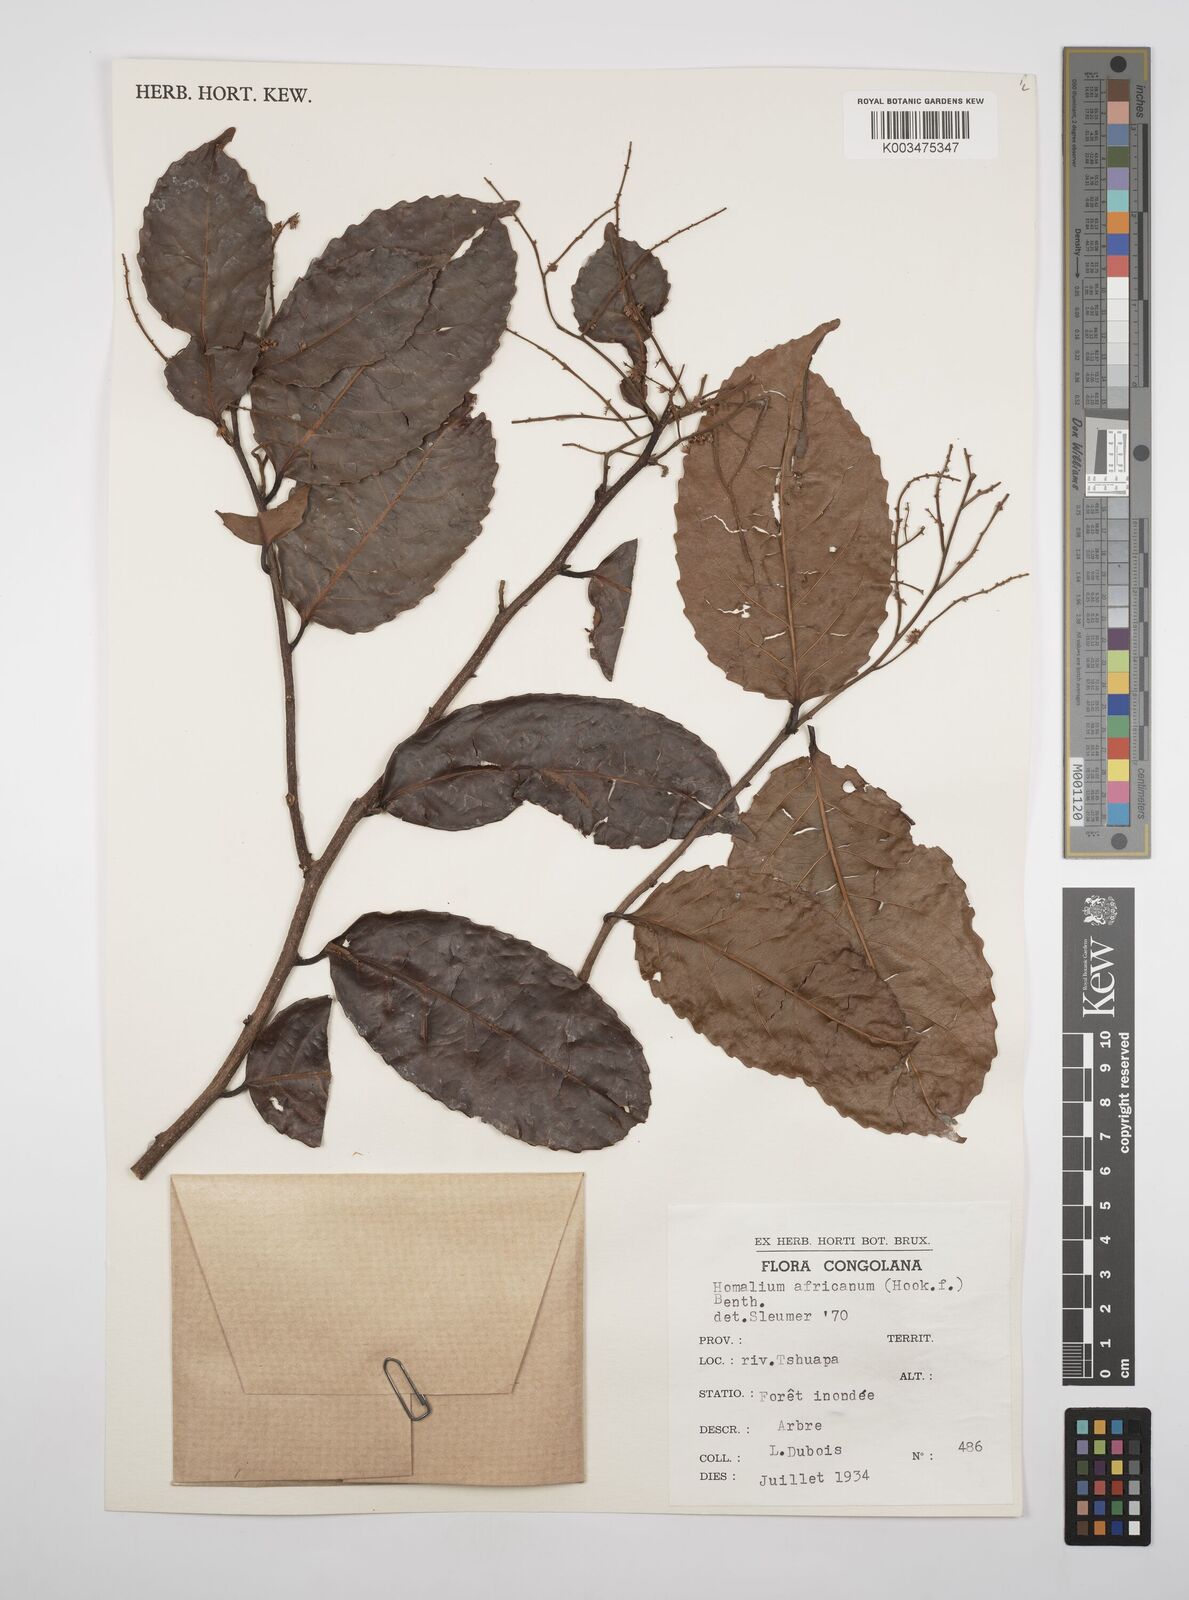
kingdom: Plantae
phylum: Tracheophyta
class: Magnoliopsida
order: Malpighiales
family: Salicaceae
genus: Homalium
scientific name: Homalium africanum
